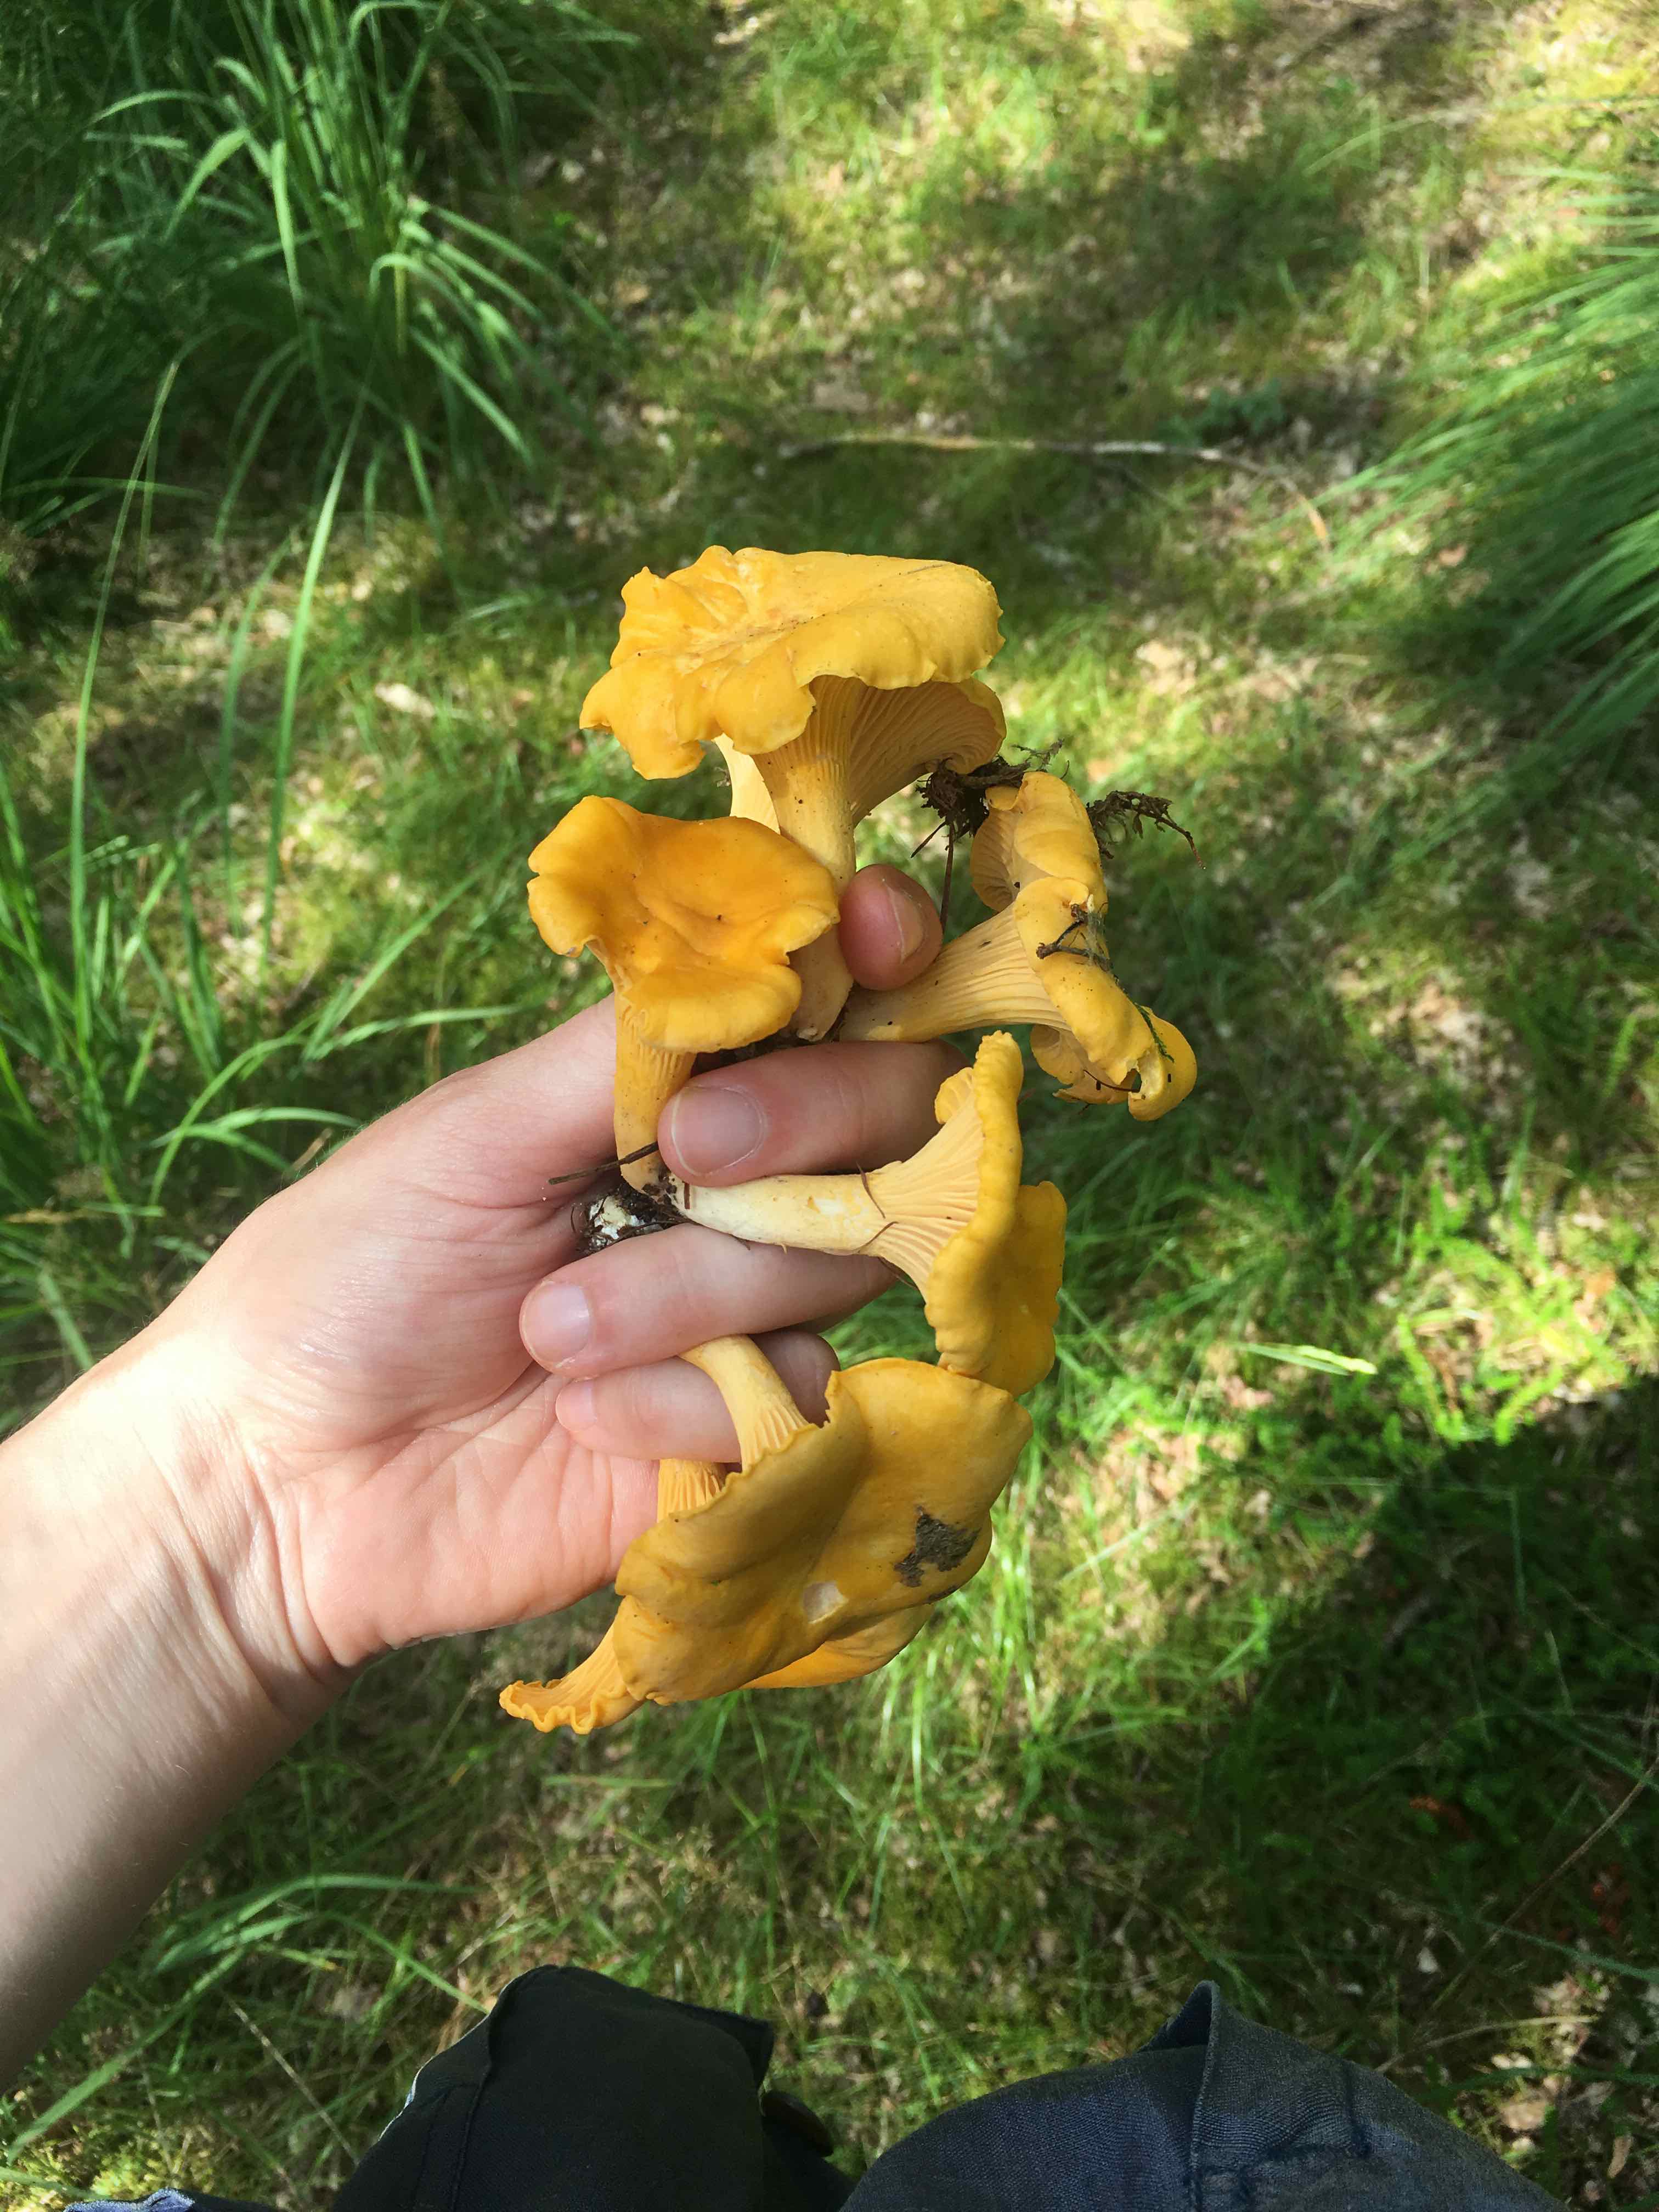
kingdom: Fungi
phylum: Basidiomycota
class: Agaricomycetes
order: Cantharellales
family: Hydnaceae
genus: Cantharellus
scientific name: Cantharellus cibarius
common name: almindelig kantarel
